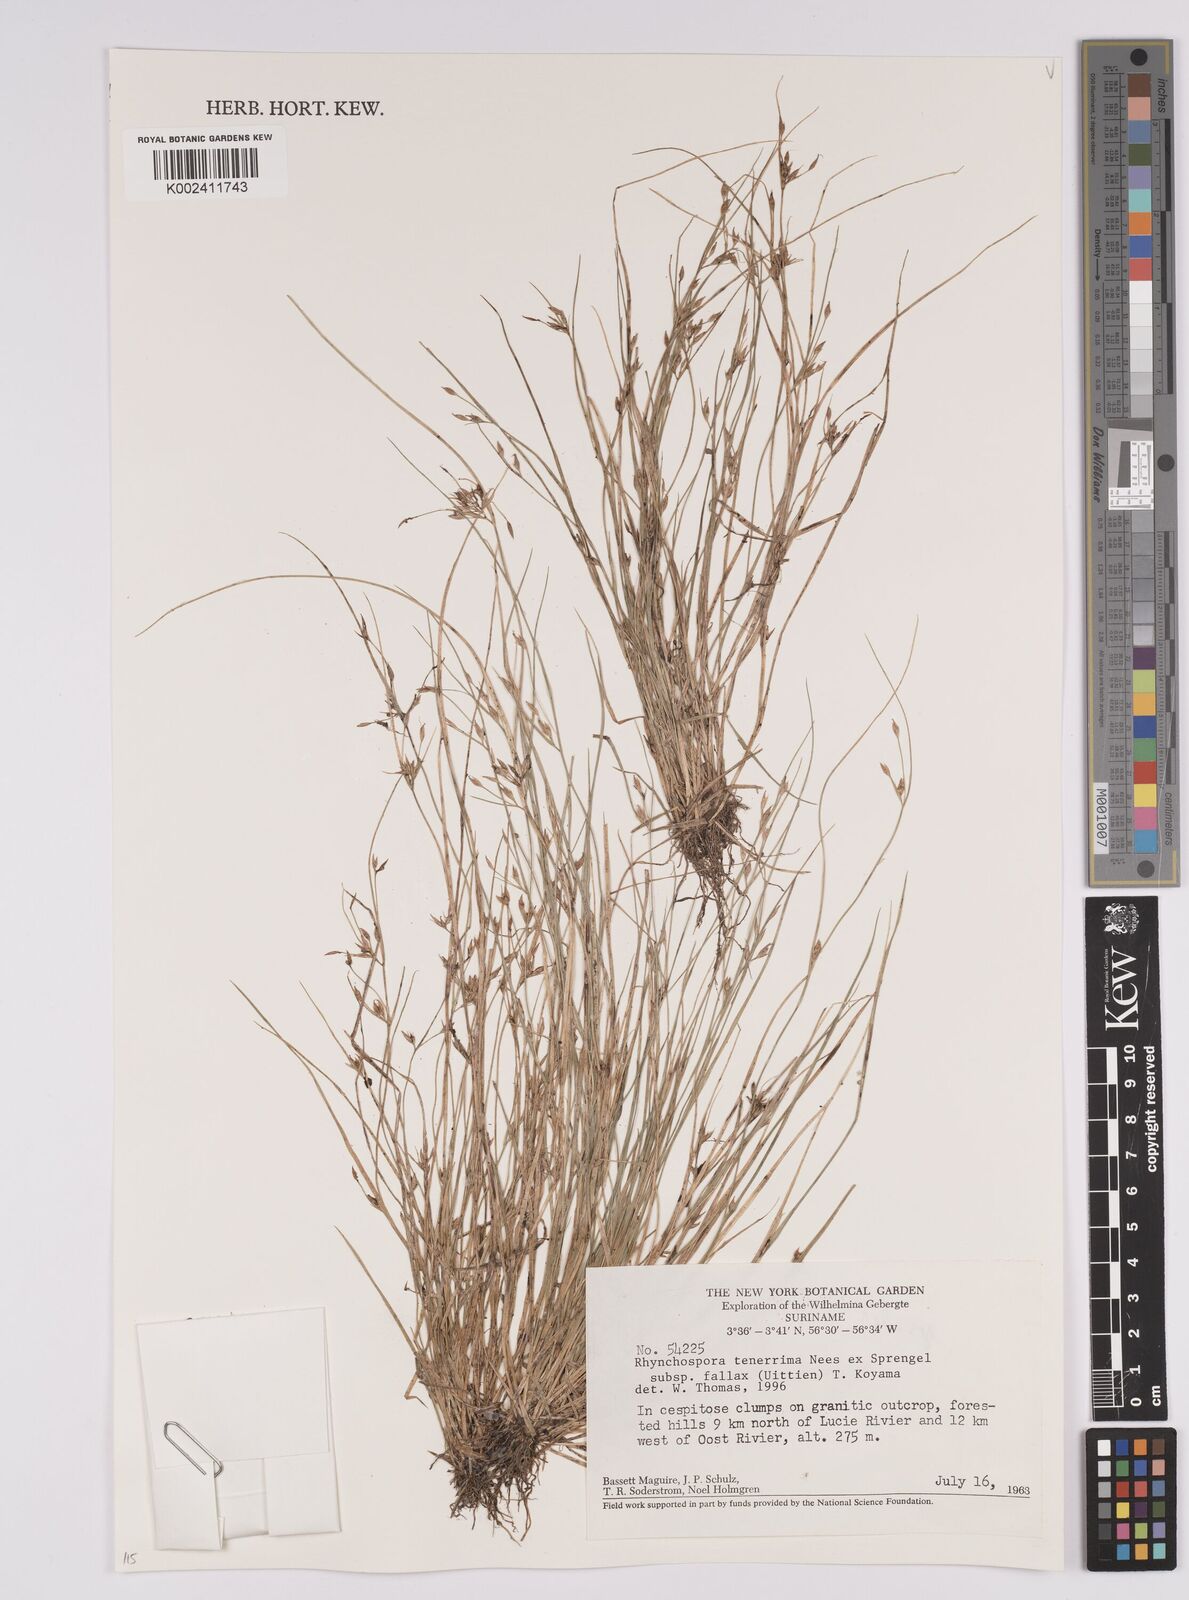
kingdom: Plantae
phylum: Tracheophyta
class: Liliopsida
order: Poales
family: Cyperaceae
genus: Rhynchospora
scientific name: Rhynchospora fallax
